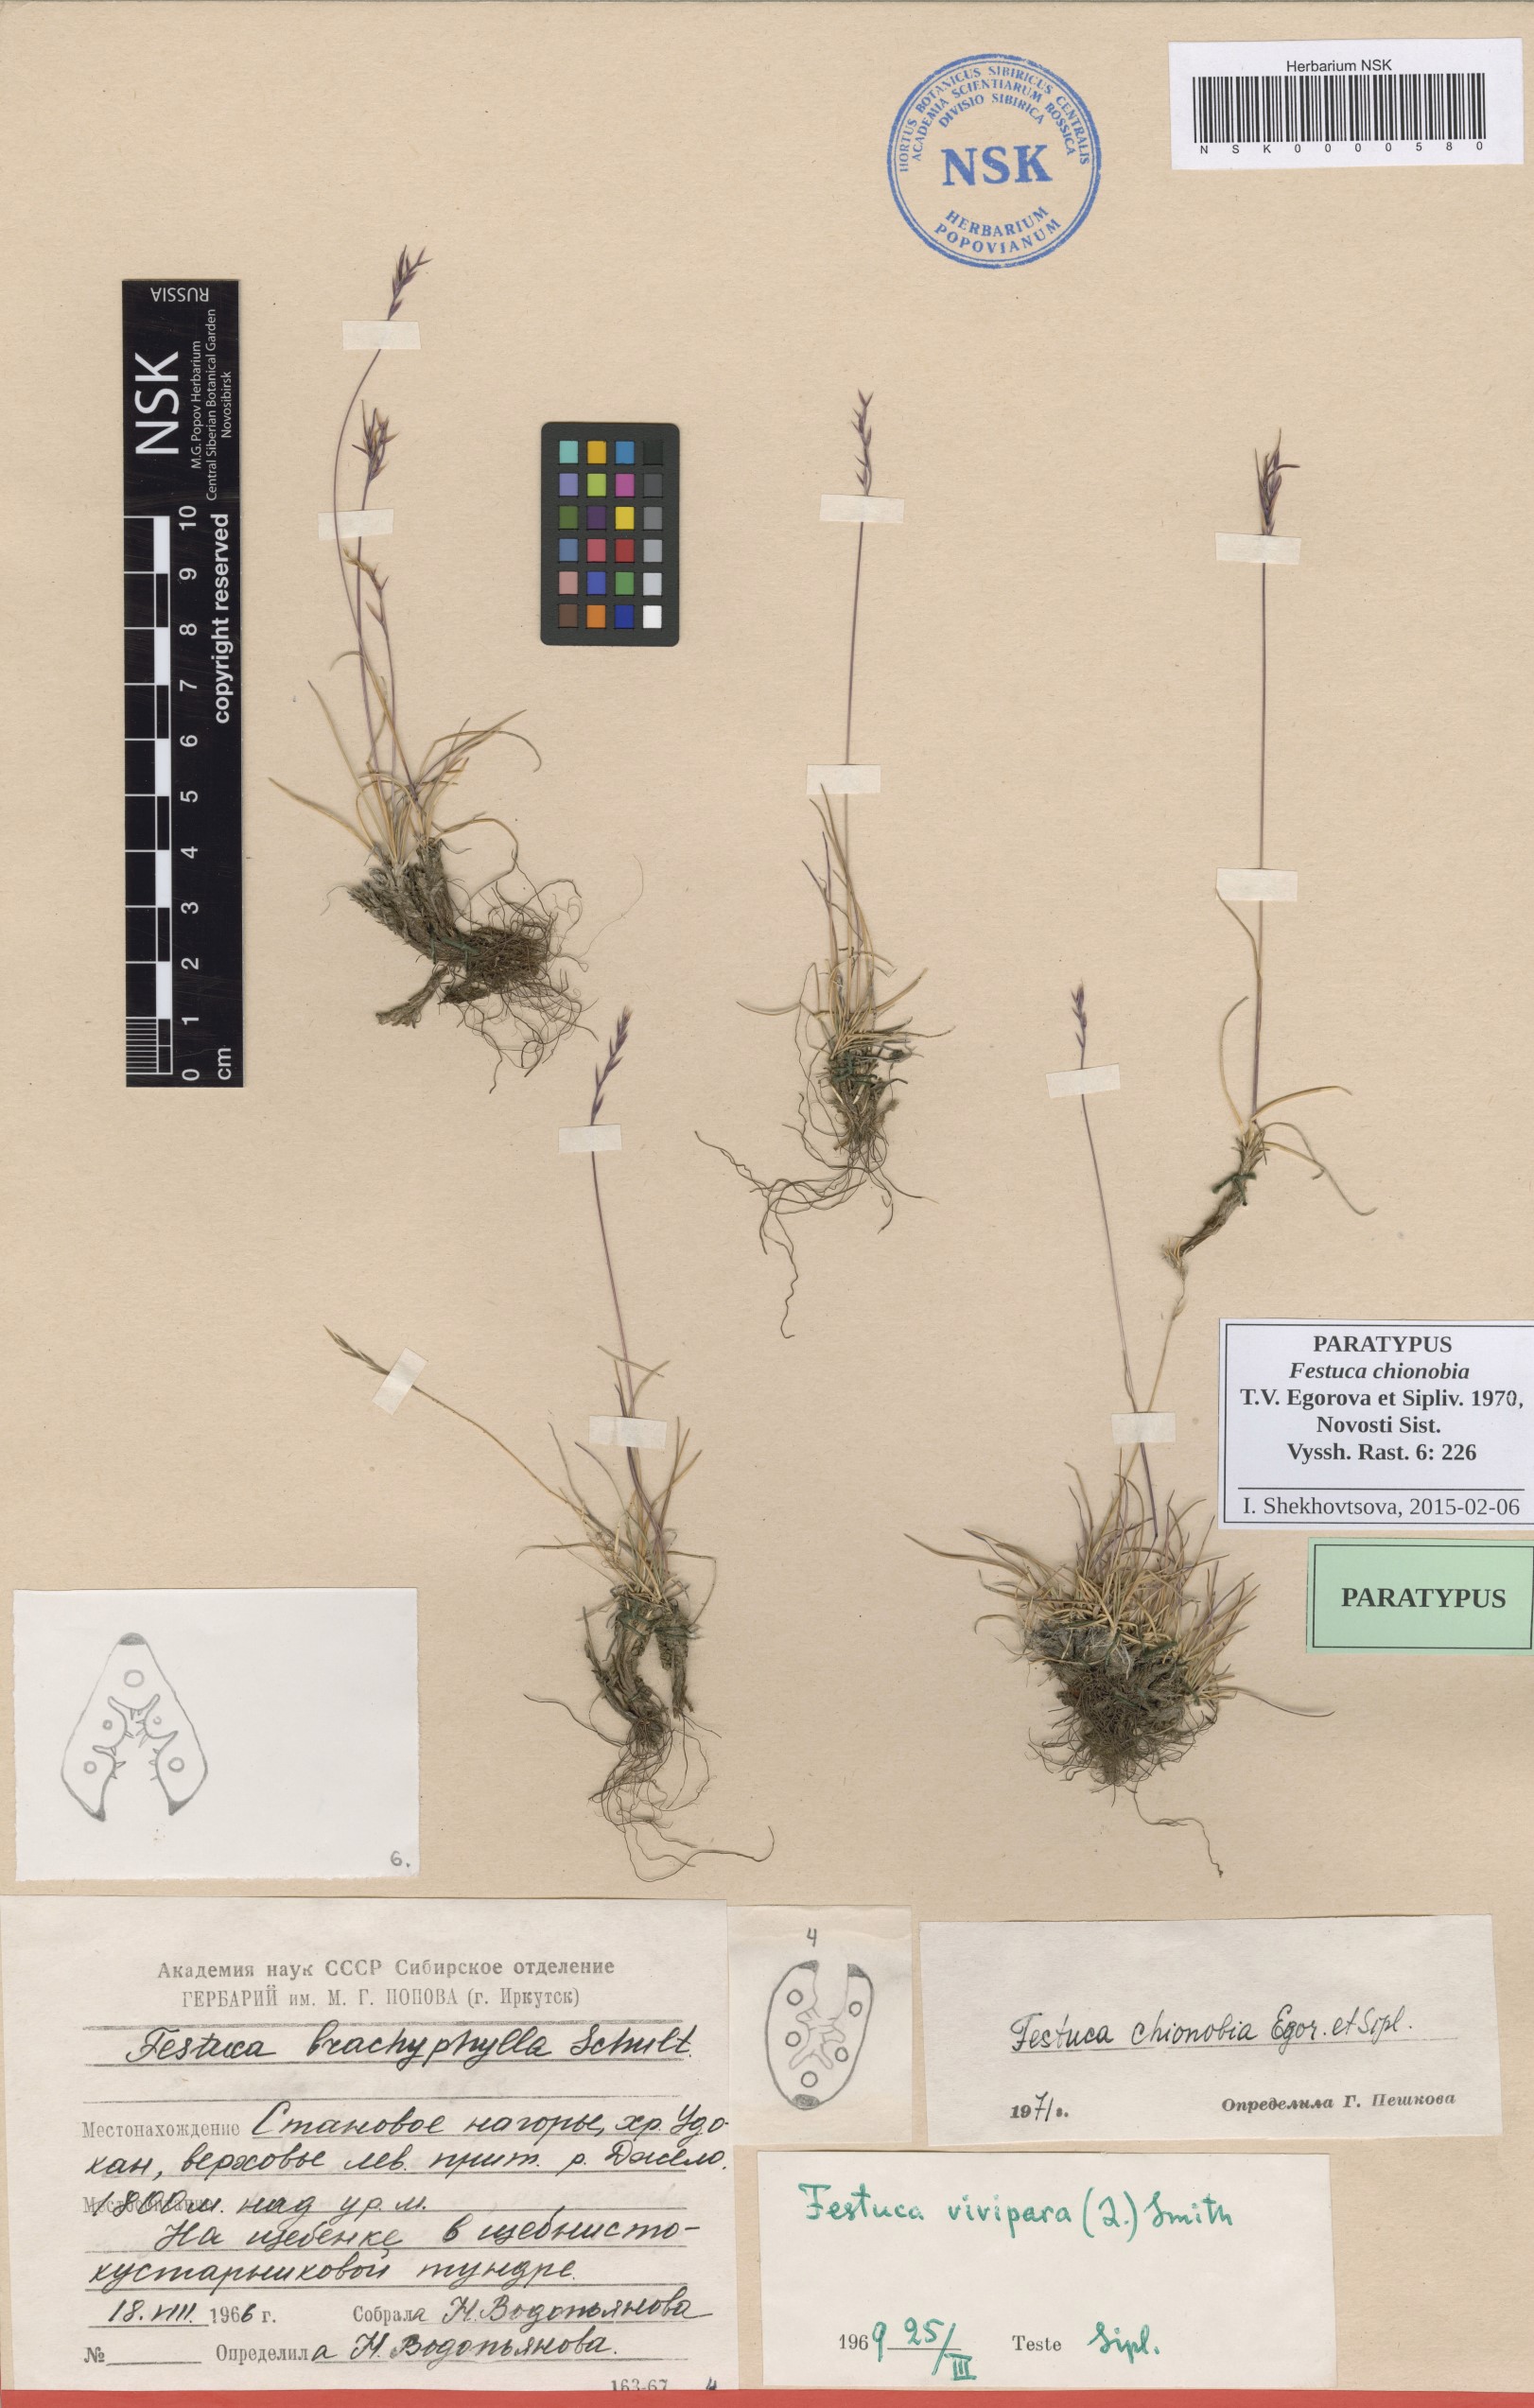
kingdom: Plantae
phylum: Tracheophyta
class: Liliopsida
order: Poales
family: Poaceae
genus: Festuca
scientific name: Festuca auriculata
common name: Eared fescue
